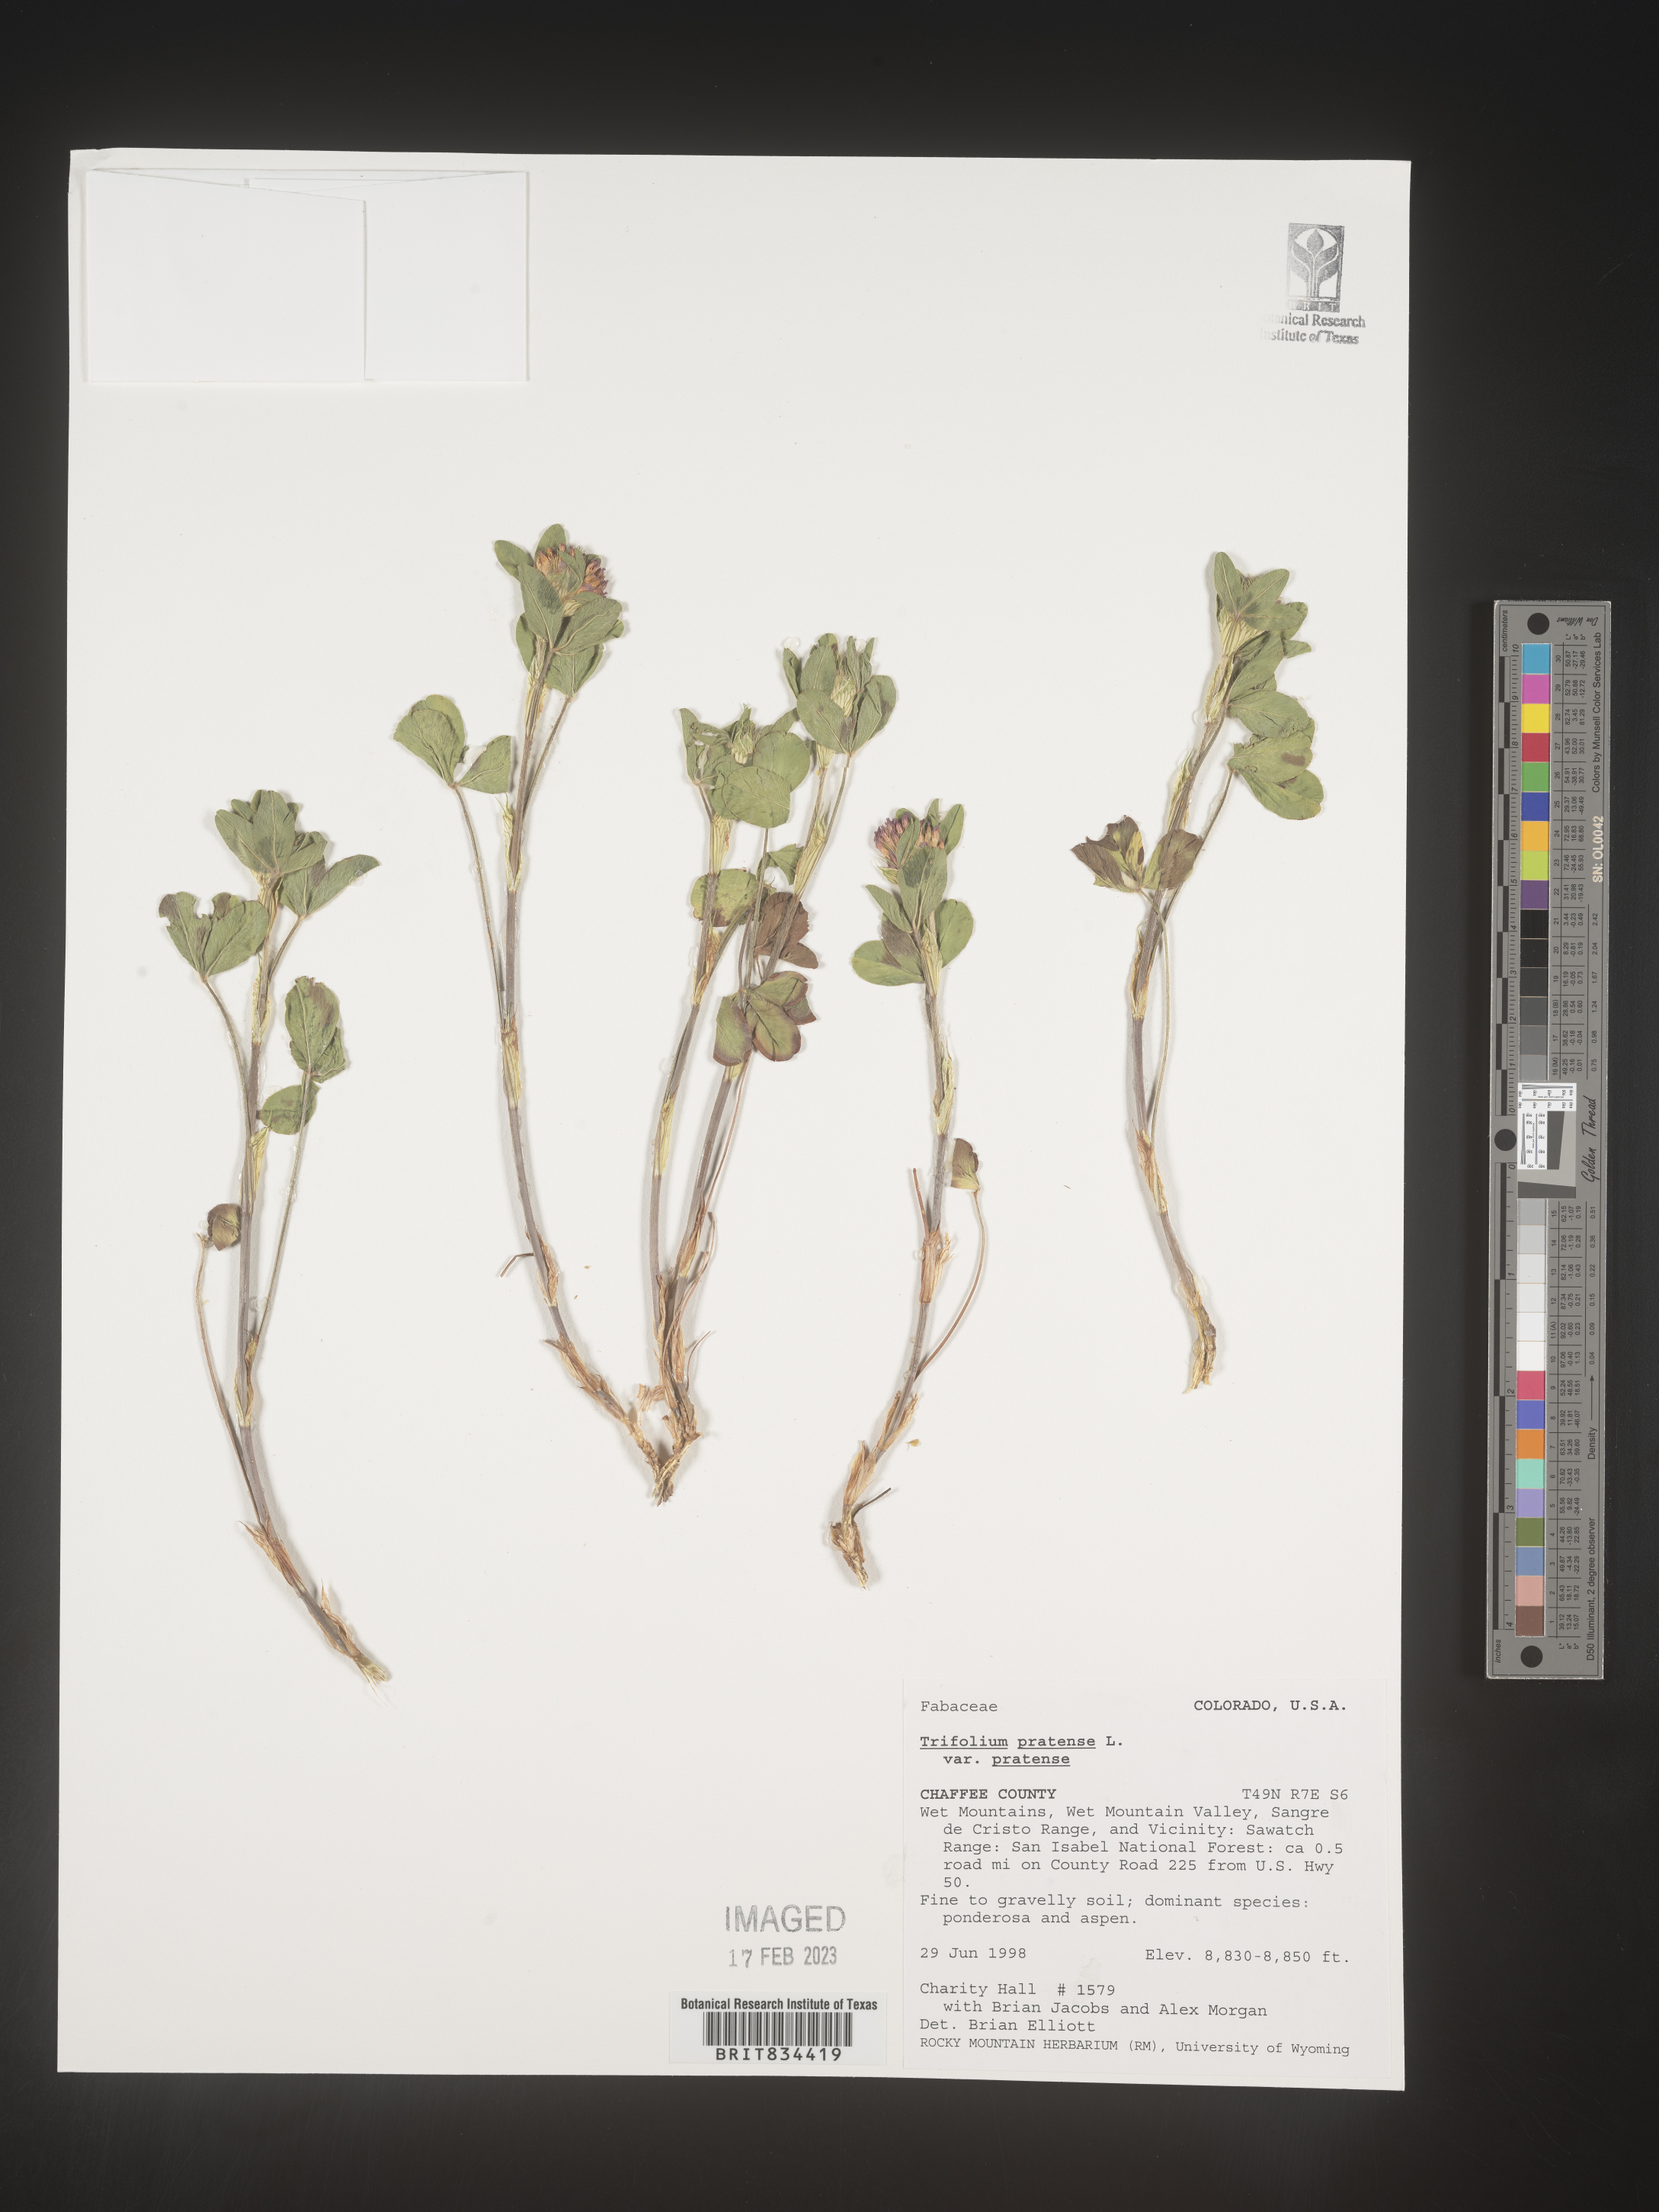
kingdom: Plantae
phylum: Tracheophyta
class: Magnoliopsida
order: Fabales
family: Fabaceae
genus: Trifolium
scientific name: Trifolium pratense
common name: Red clover
